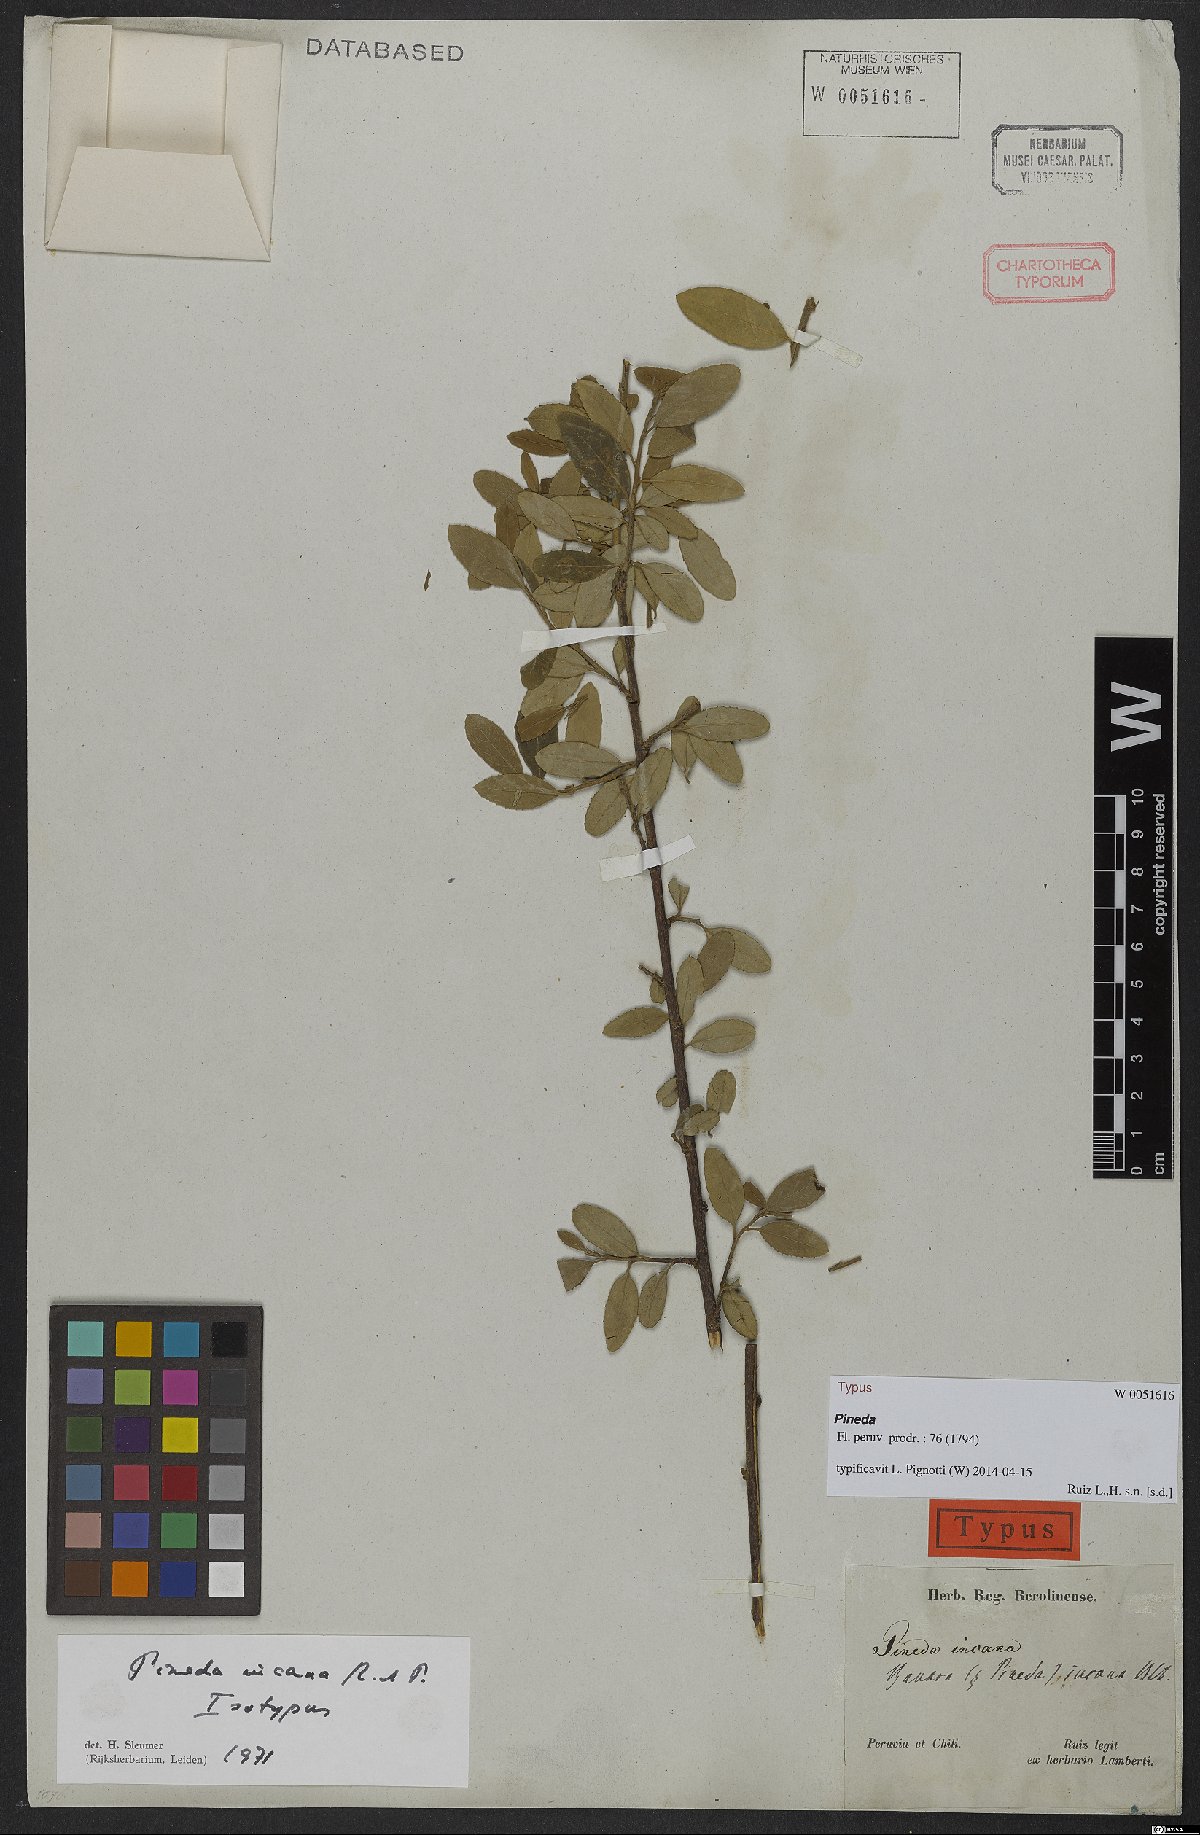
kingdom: Plantae
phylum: Tracheophyta
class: Magnoliopsida
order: Malpighiales
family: Salicaceae
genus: Pineda
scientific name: Pineda incana
